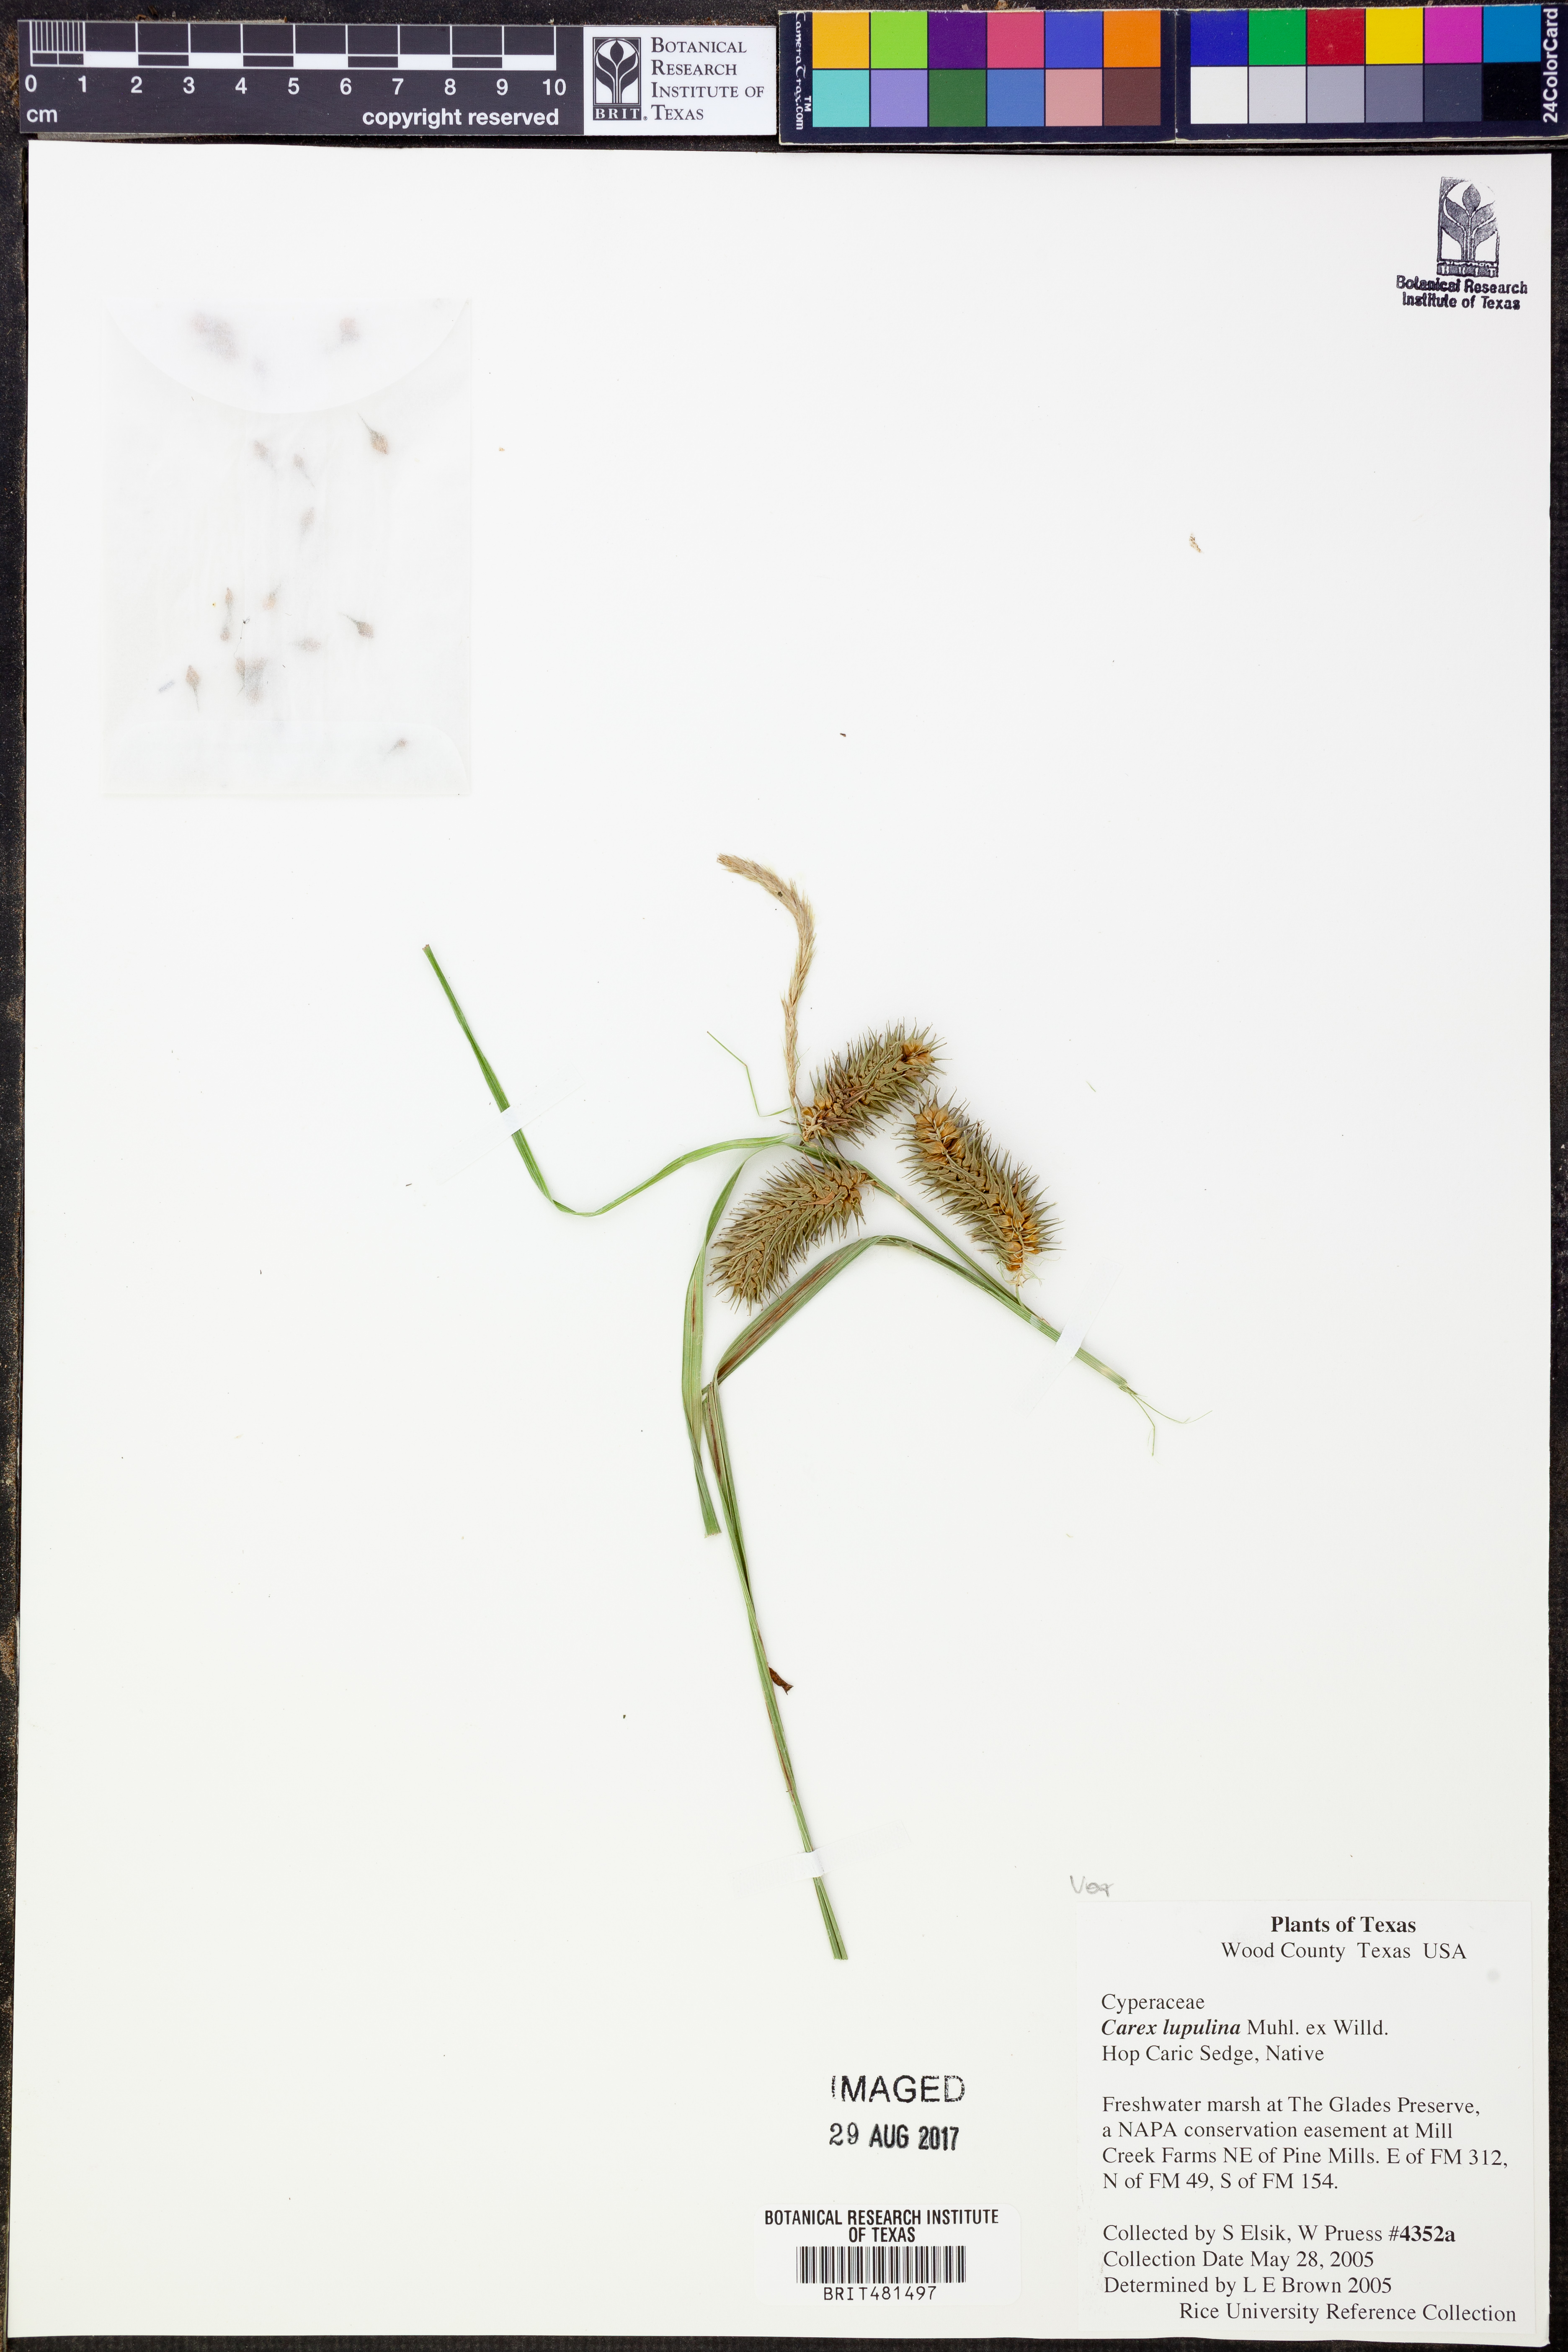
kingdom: Plantae
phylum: Tracheophyta
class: Liliopsida
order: Poales
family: Cyperaceae
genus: Carex
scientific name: Carex lupulina
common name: Hop sedge
